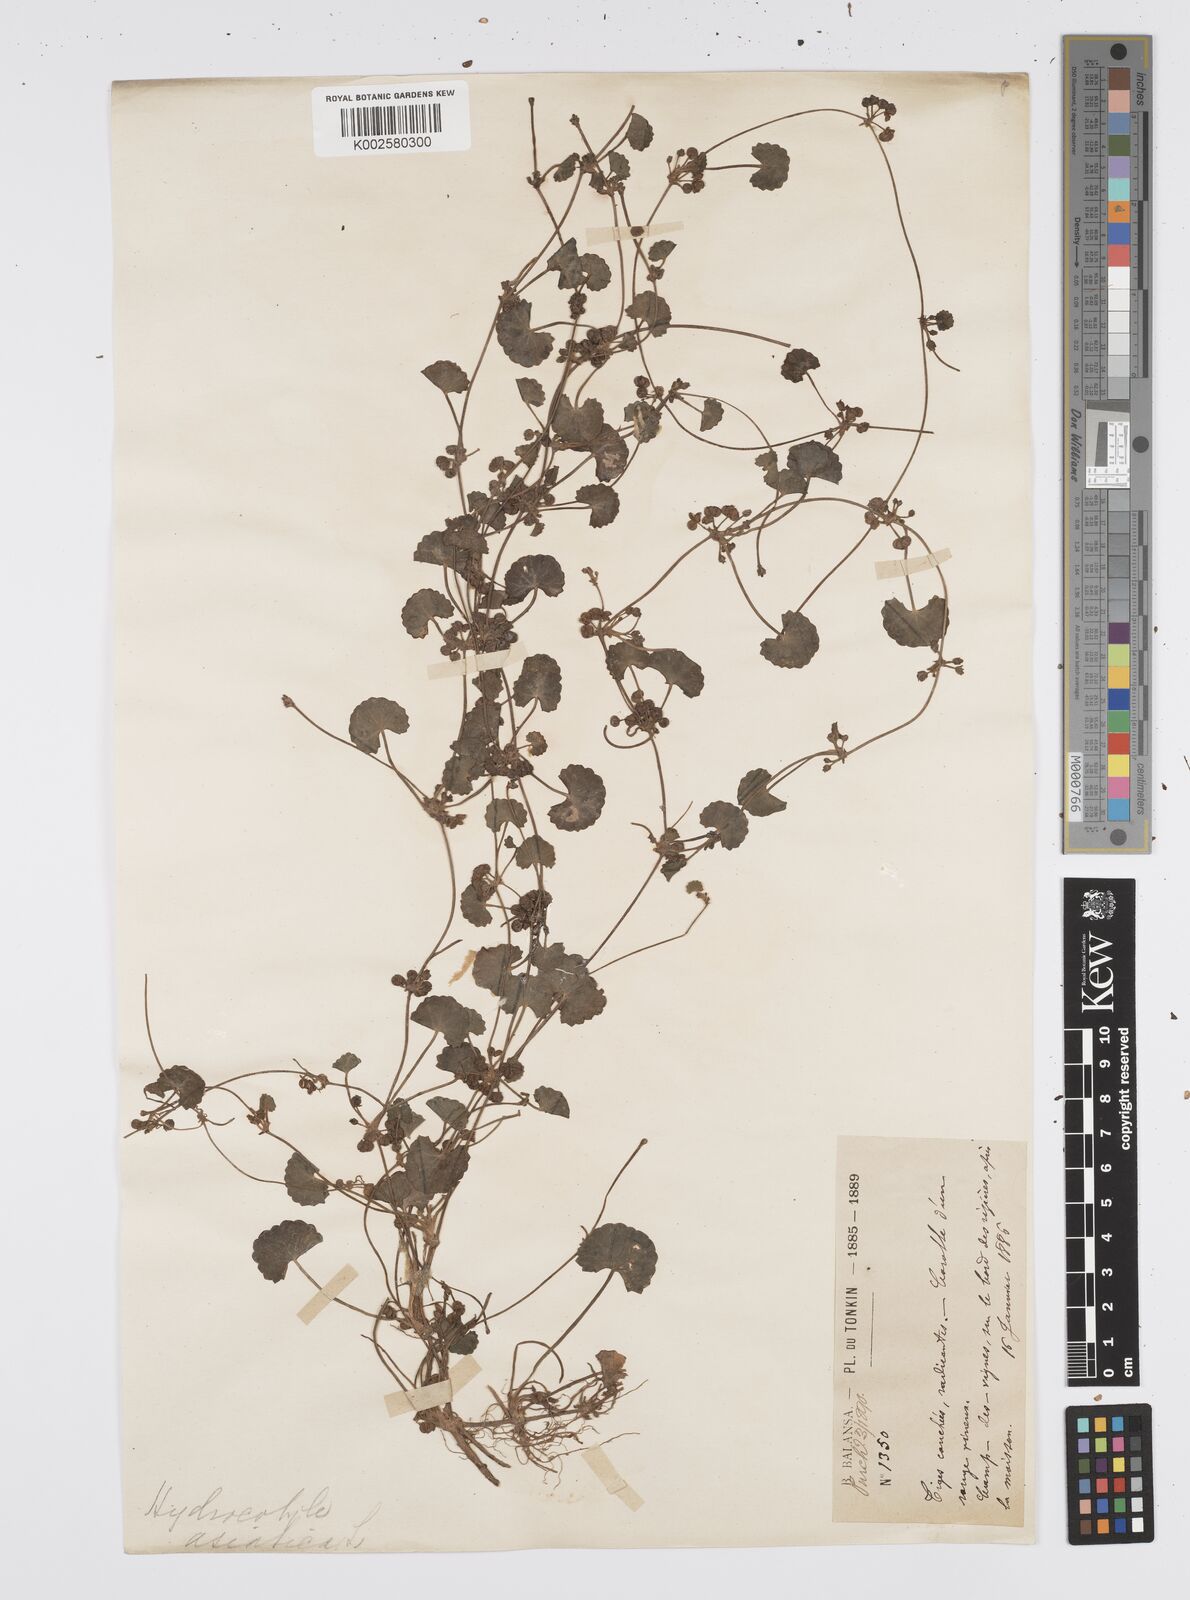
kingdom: Plantae
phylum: Tracheophyta
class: Magnoliopsida
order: Apiales
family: Apiaceae
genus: Centella
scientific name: Centella asiatica
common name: Spadeleaf
